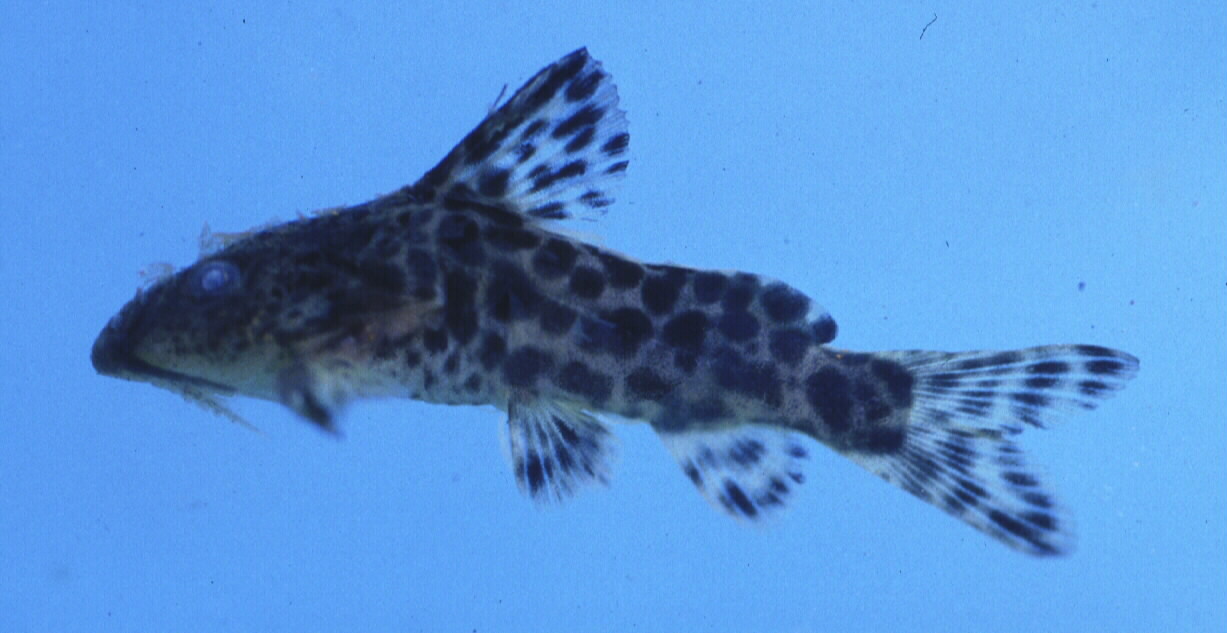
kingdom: Animalia
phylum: Chordata
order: Siluriformes
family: Mochokidae
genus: Synodontis
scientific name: Synodontis nebulosus
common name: Cloudy squeaker
